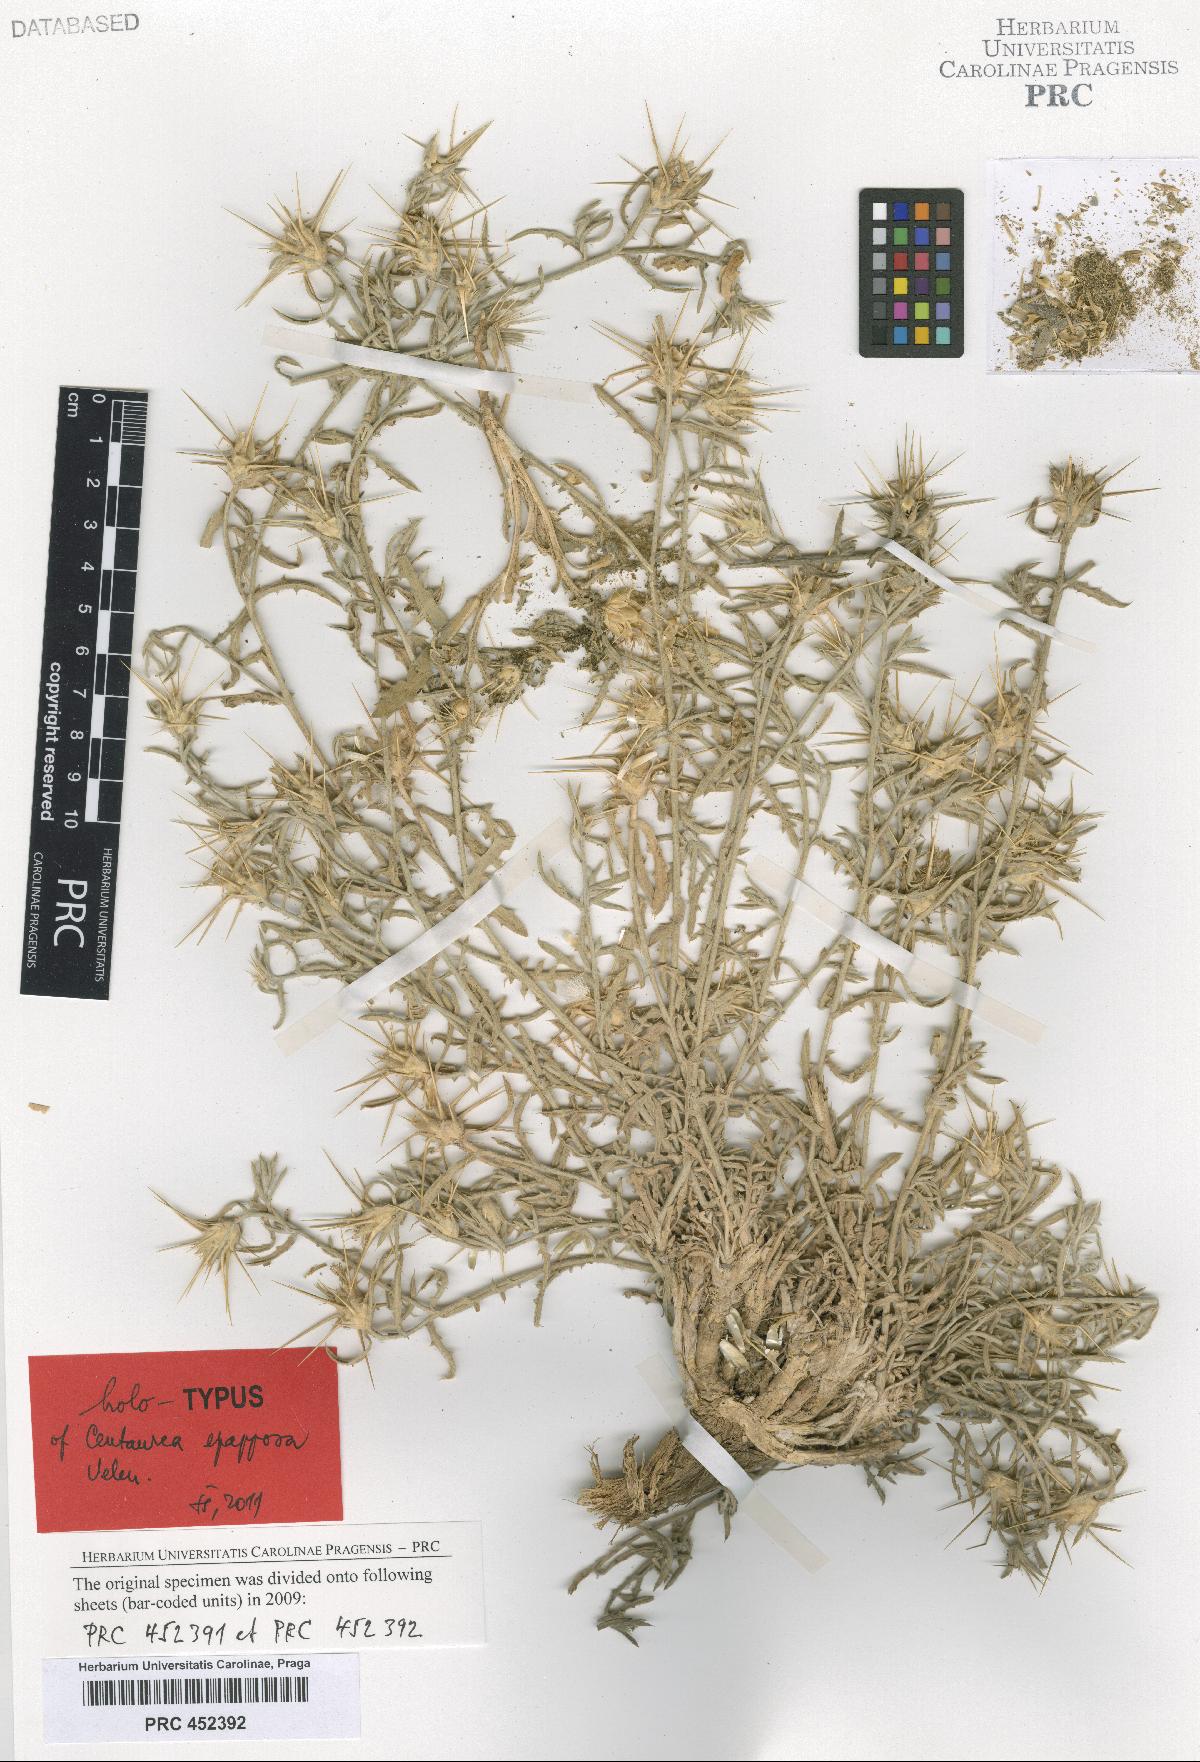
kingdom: Plantae
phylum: Tracheophyta
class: Magnoliopsida
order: Asterales
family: Asteraceae
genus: Centaurea
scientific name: Centaurea epapposa
